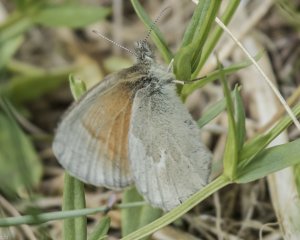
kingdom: Animalia
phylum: Arthropoda
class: Insecta
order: Lepidoptera
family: Nymphalidae
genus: Coenonympha
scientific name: Coenonympha tullia
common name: Large Heath
